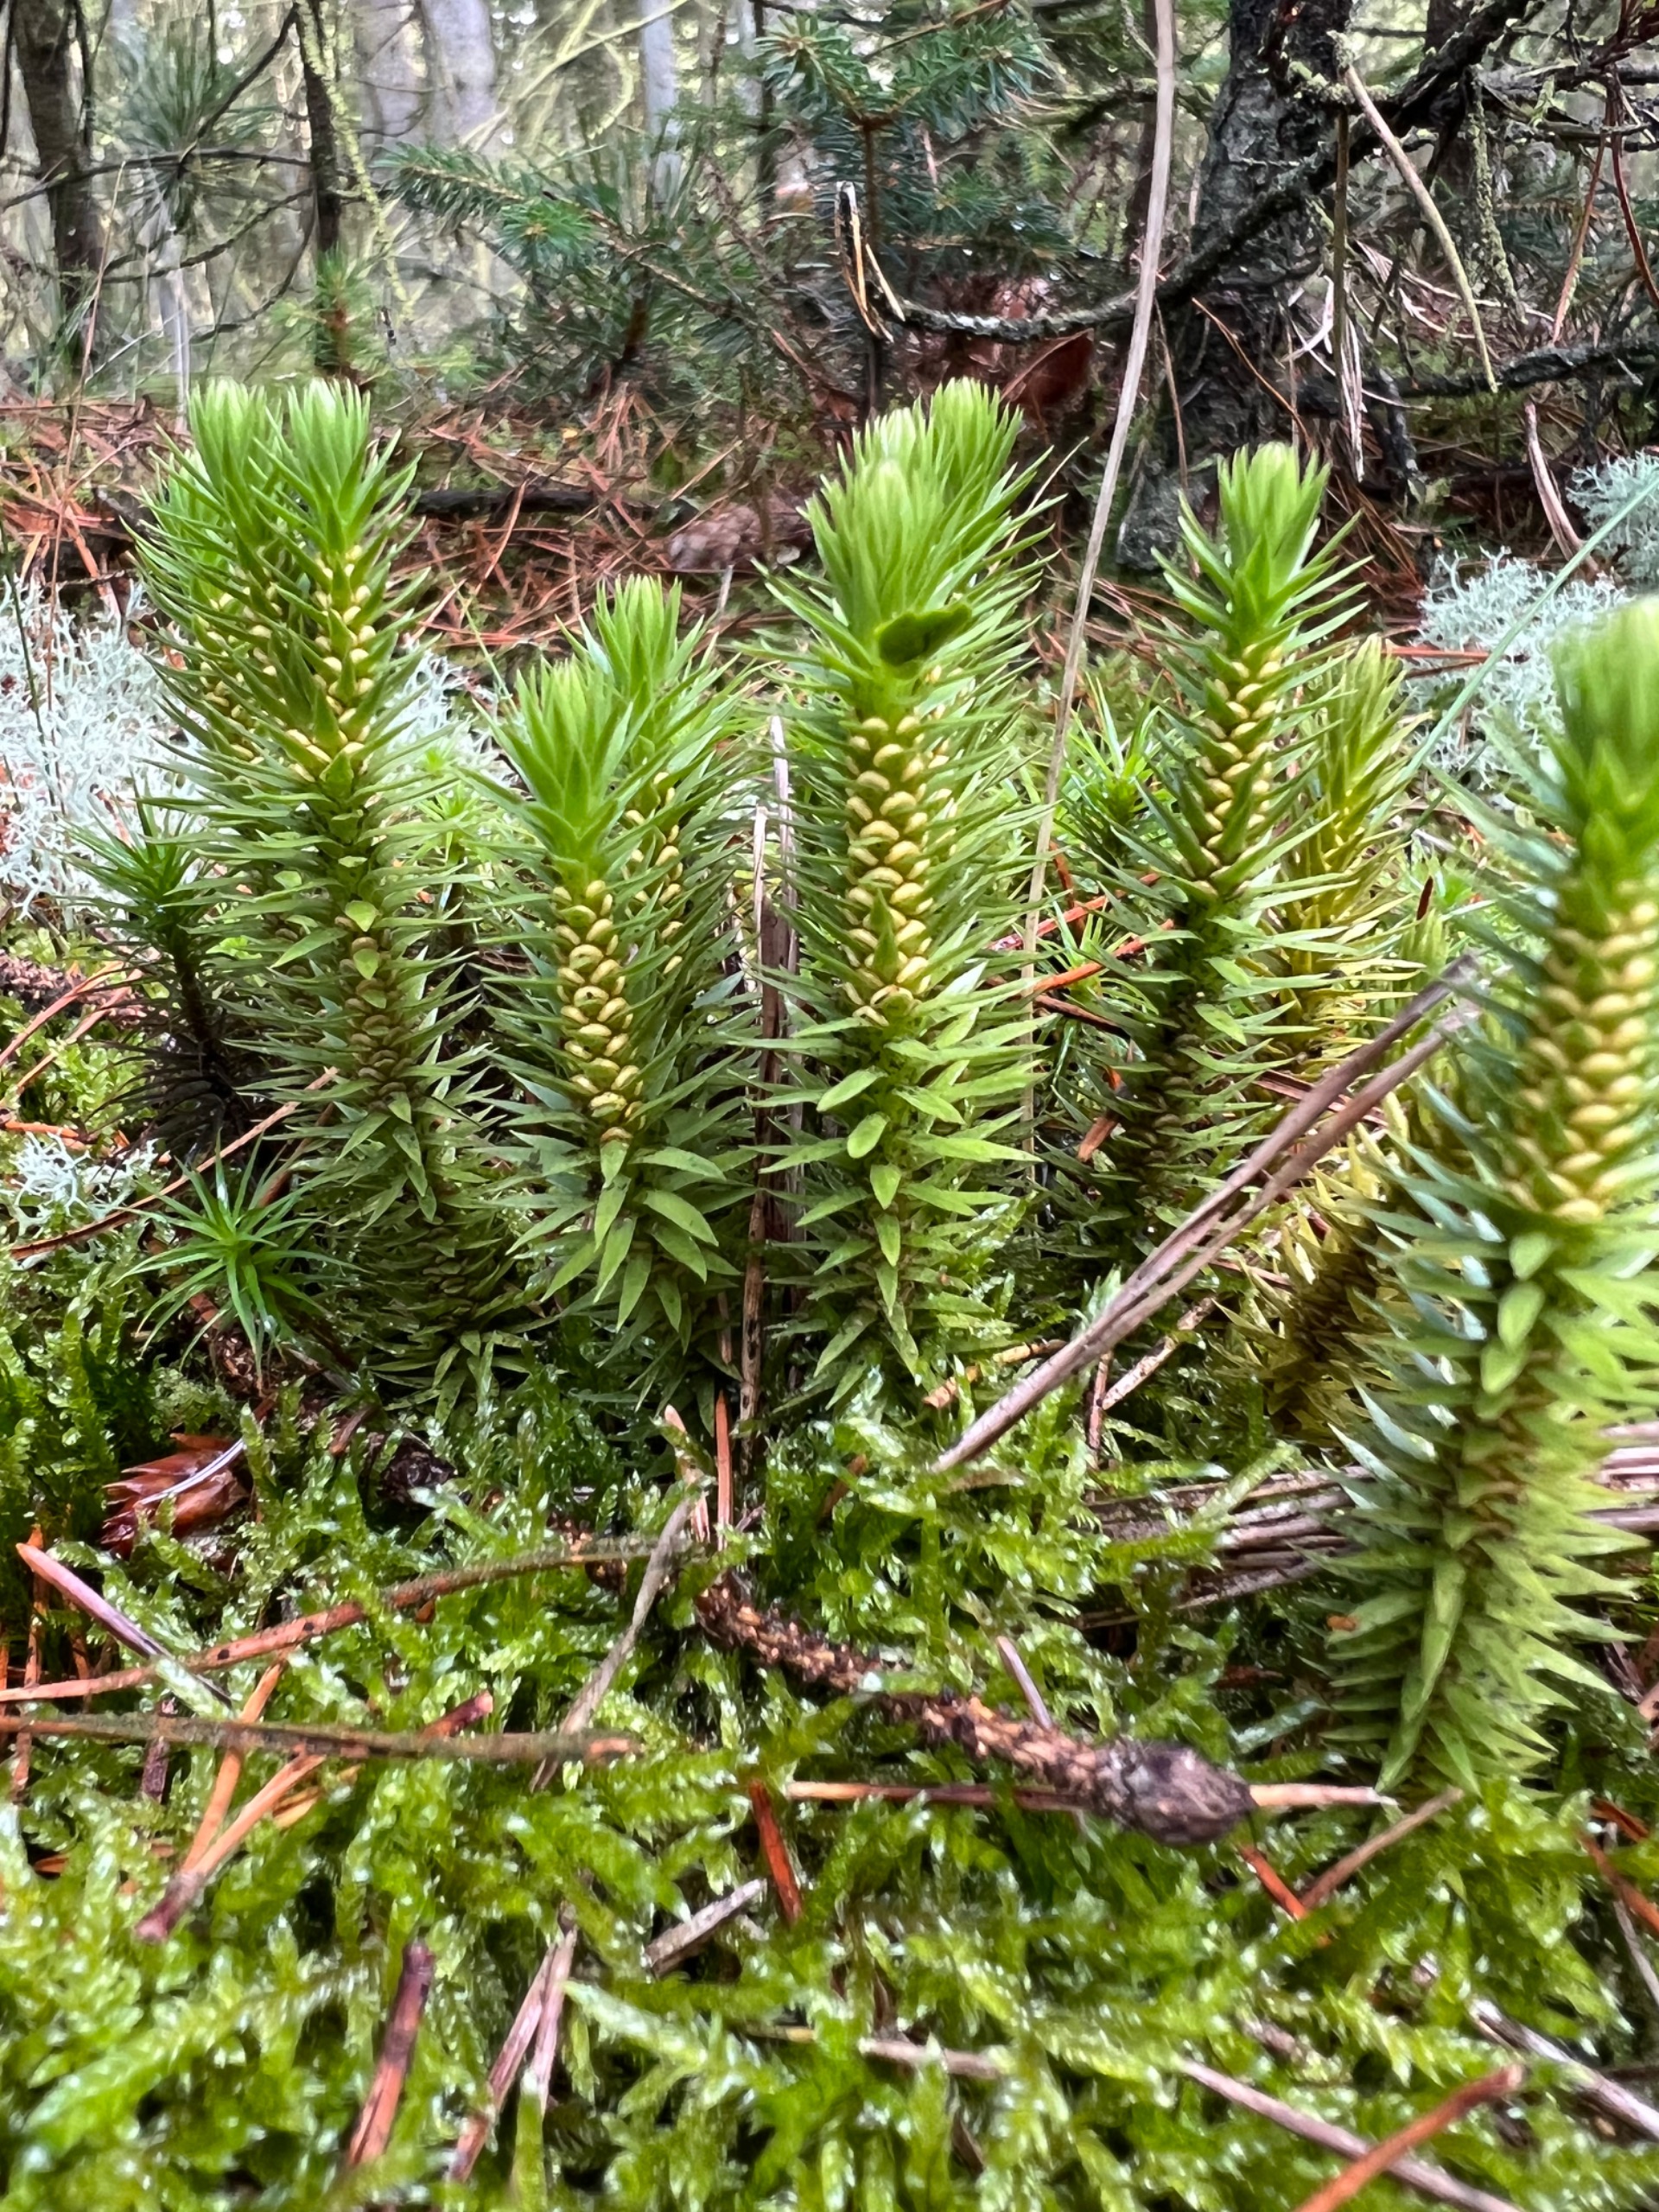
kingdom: Plantae
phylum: Tracheophyta
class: Lycopodiopsida
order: Lycopodiales
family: Lycopodiaceae
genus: Huperzia
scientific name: Huperzia selago
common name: Otteradet ulvefod
